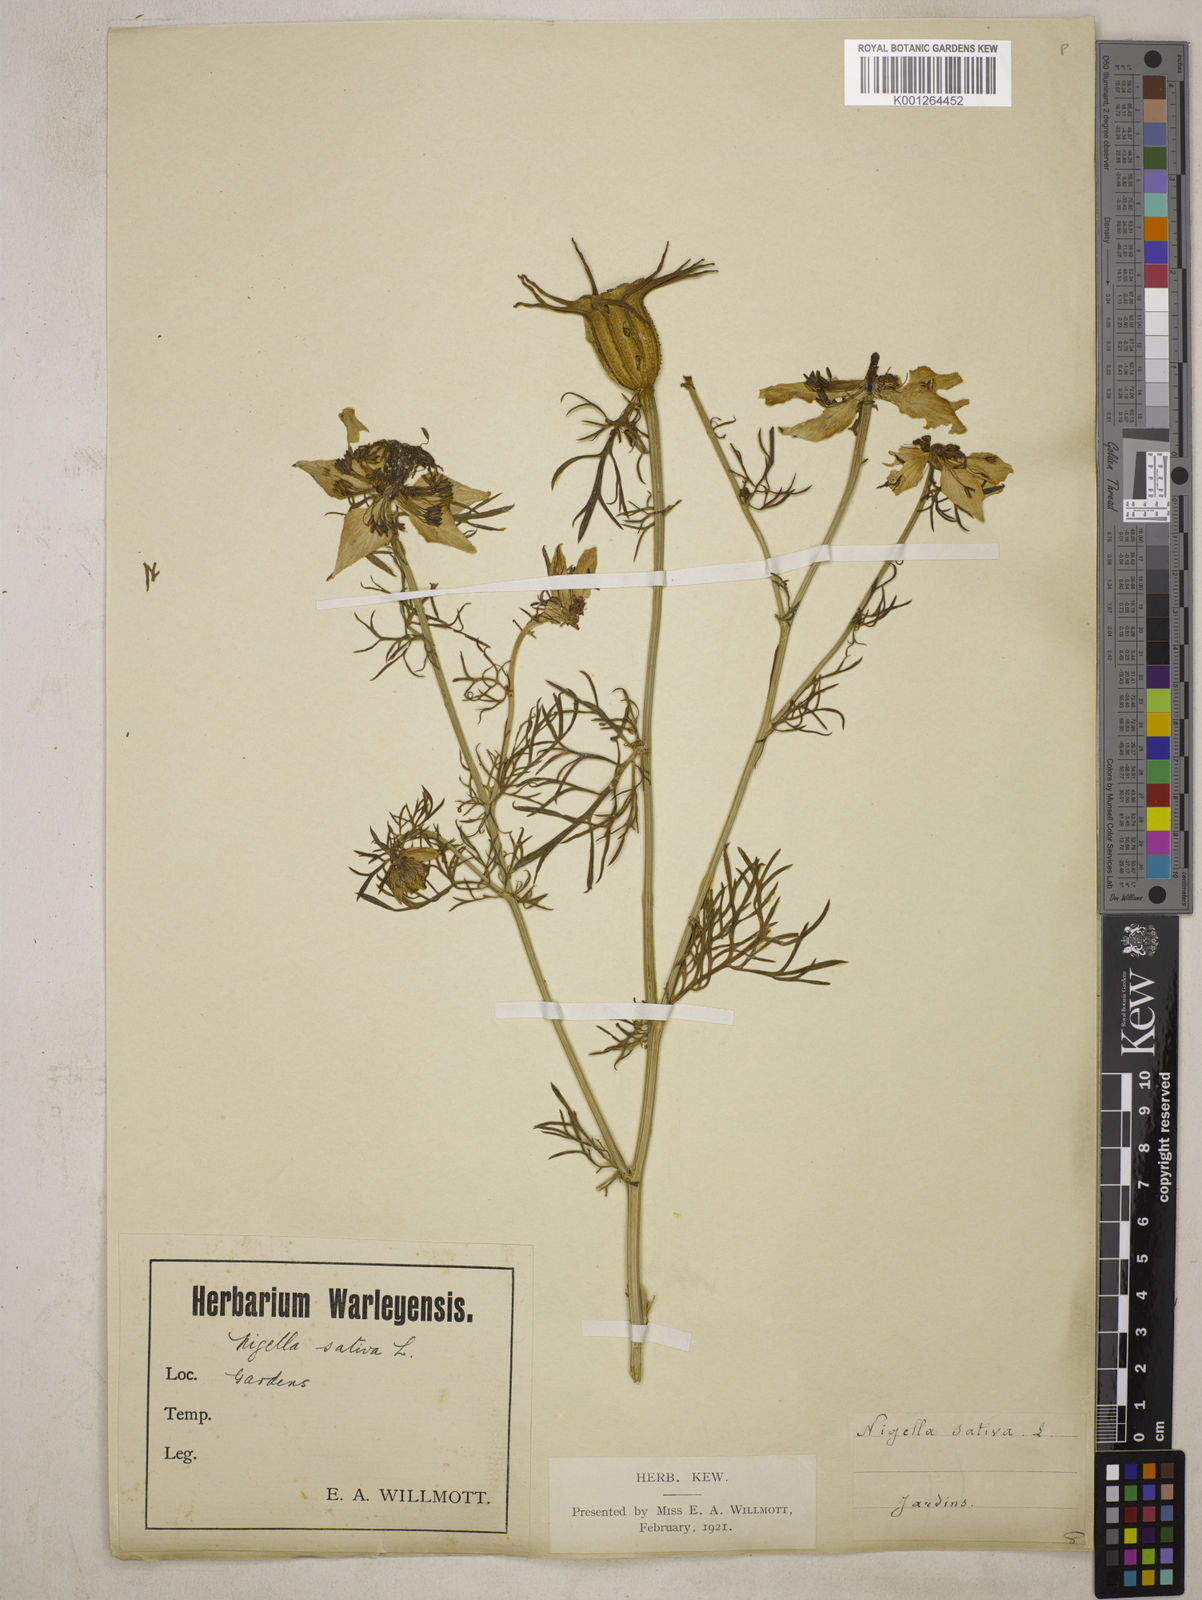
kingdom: Plantae
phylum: Tracheophyta
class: Magnoliopsida
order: Ranunculales
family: Ranunculaceae
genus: Nigella
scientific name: Nigella hispanica
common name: Fennel-flower
